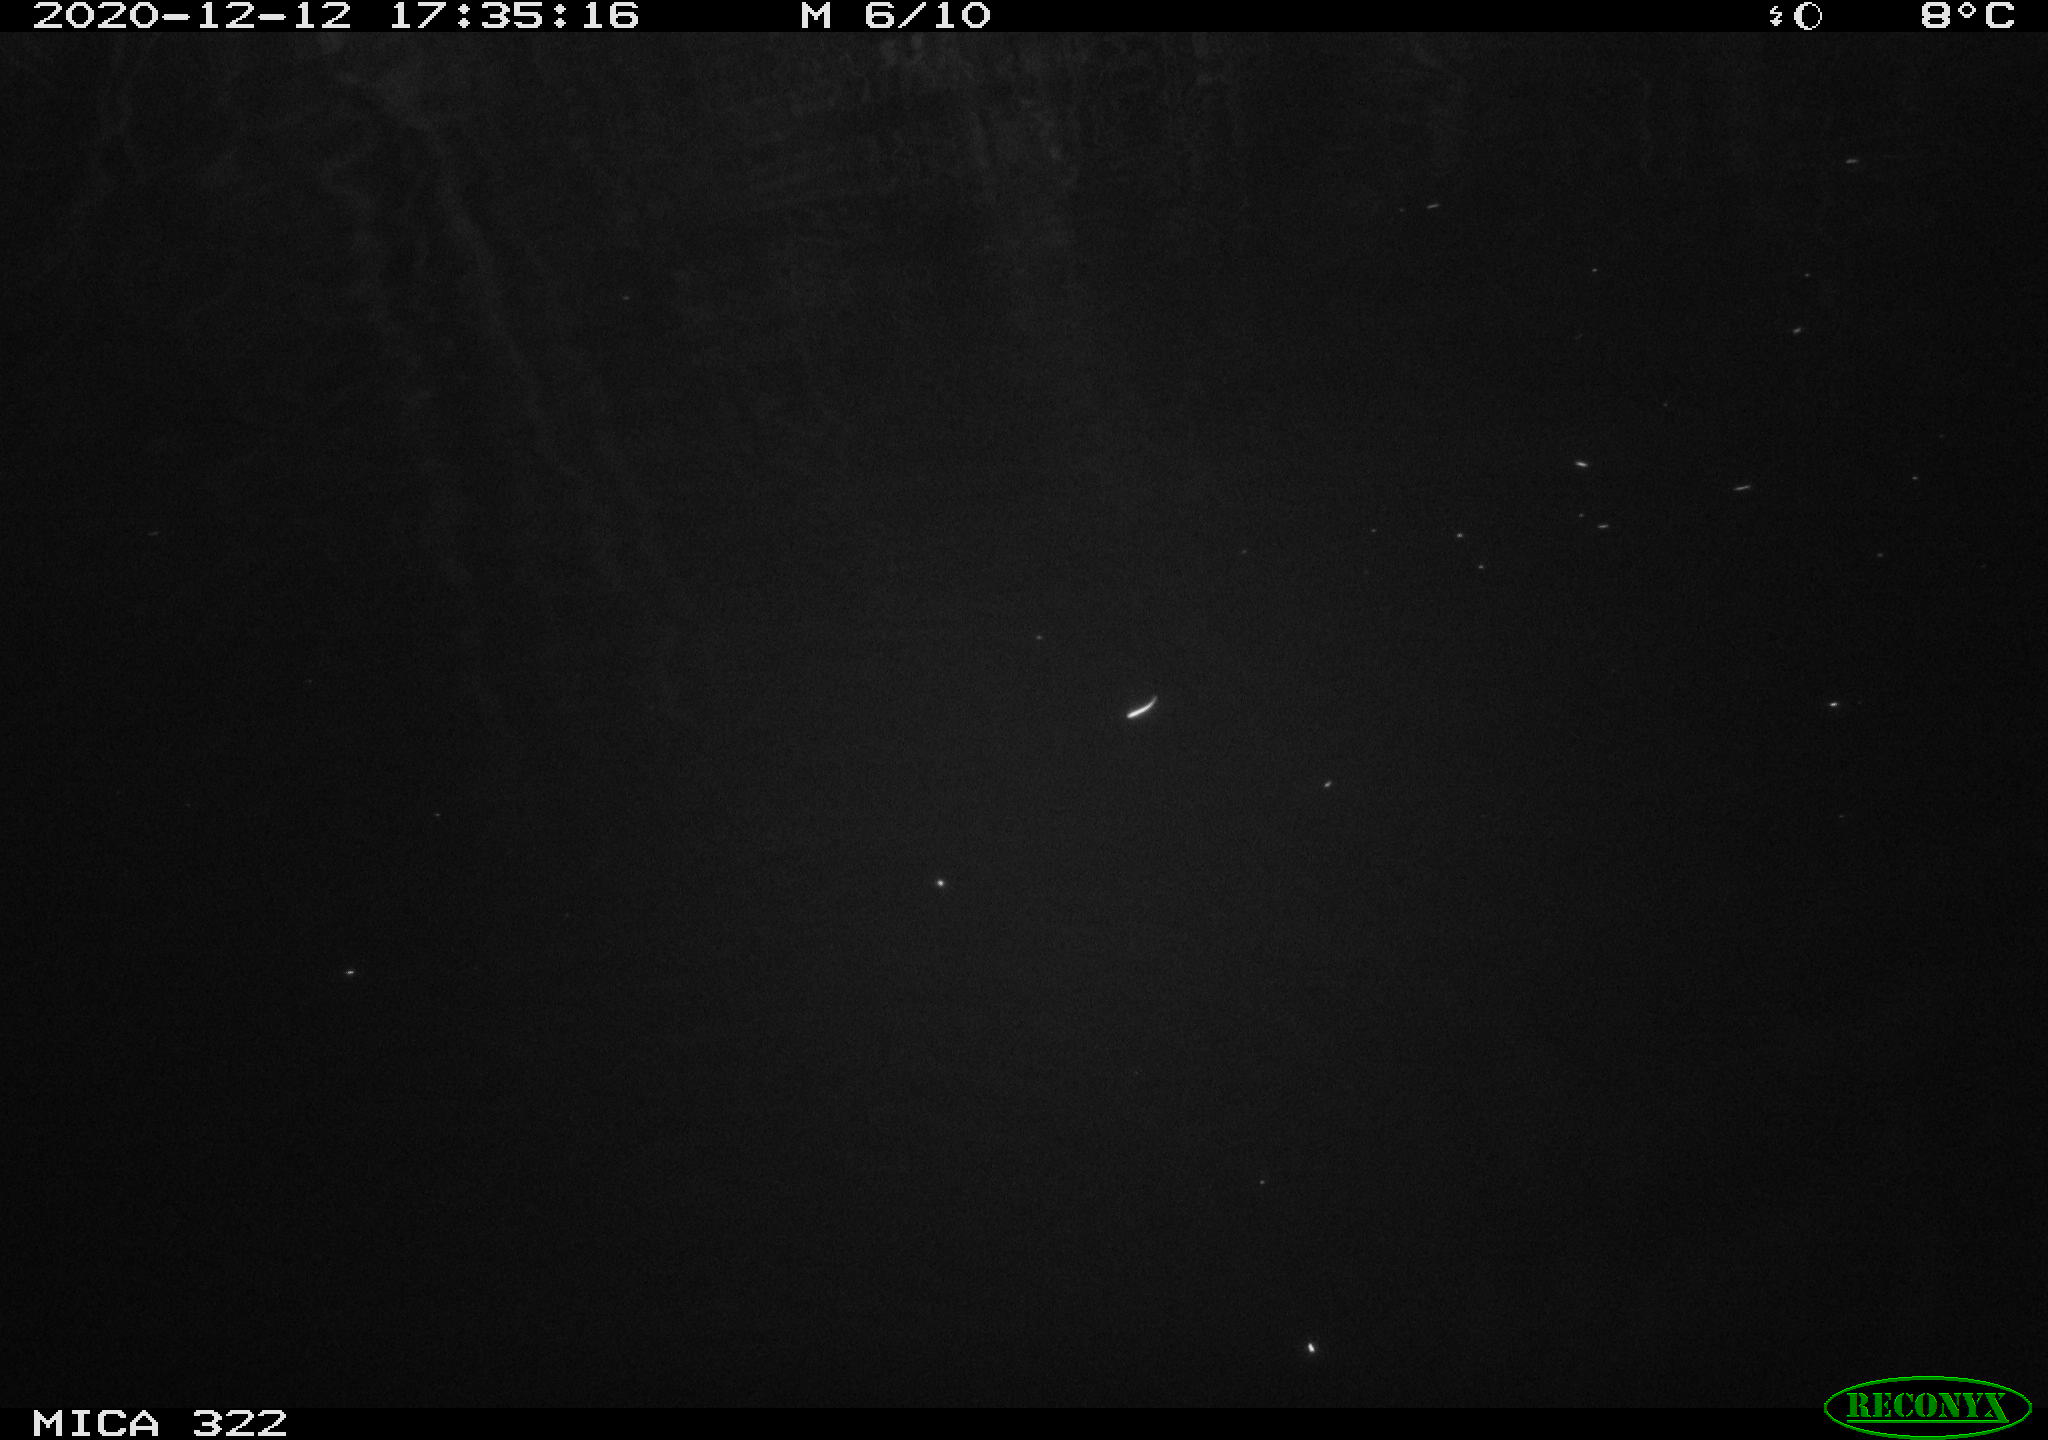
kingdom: Animalia
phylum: Chordata
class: Mammalia
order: Rodentia
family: Muridae
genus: Rattus
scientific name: Rattus norvegicus
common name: Brown rat
